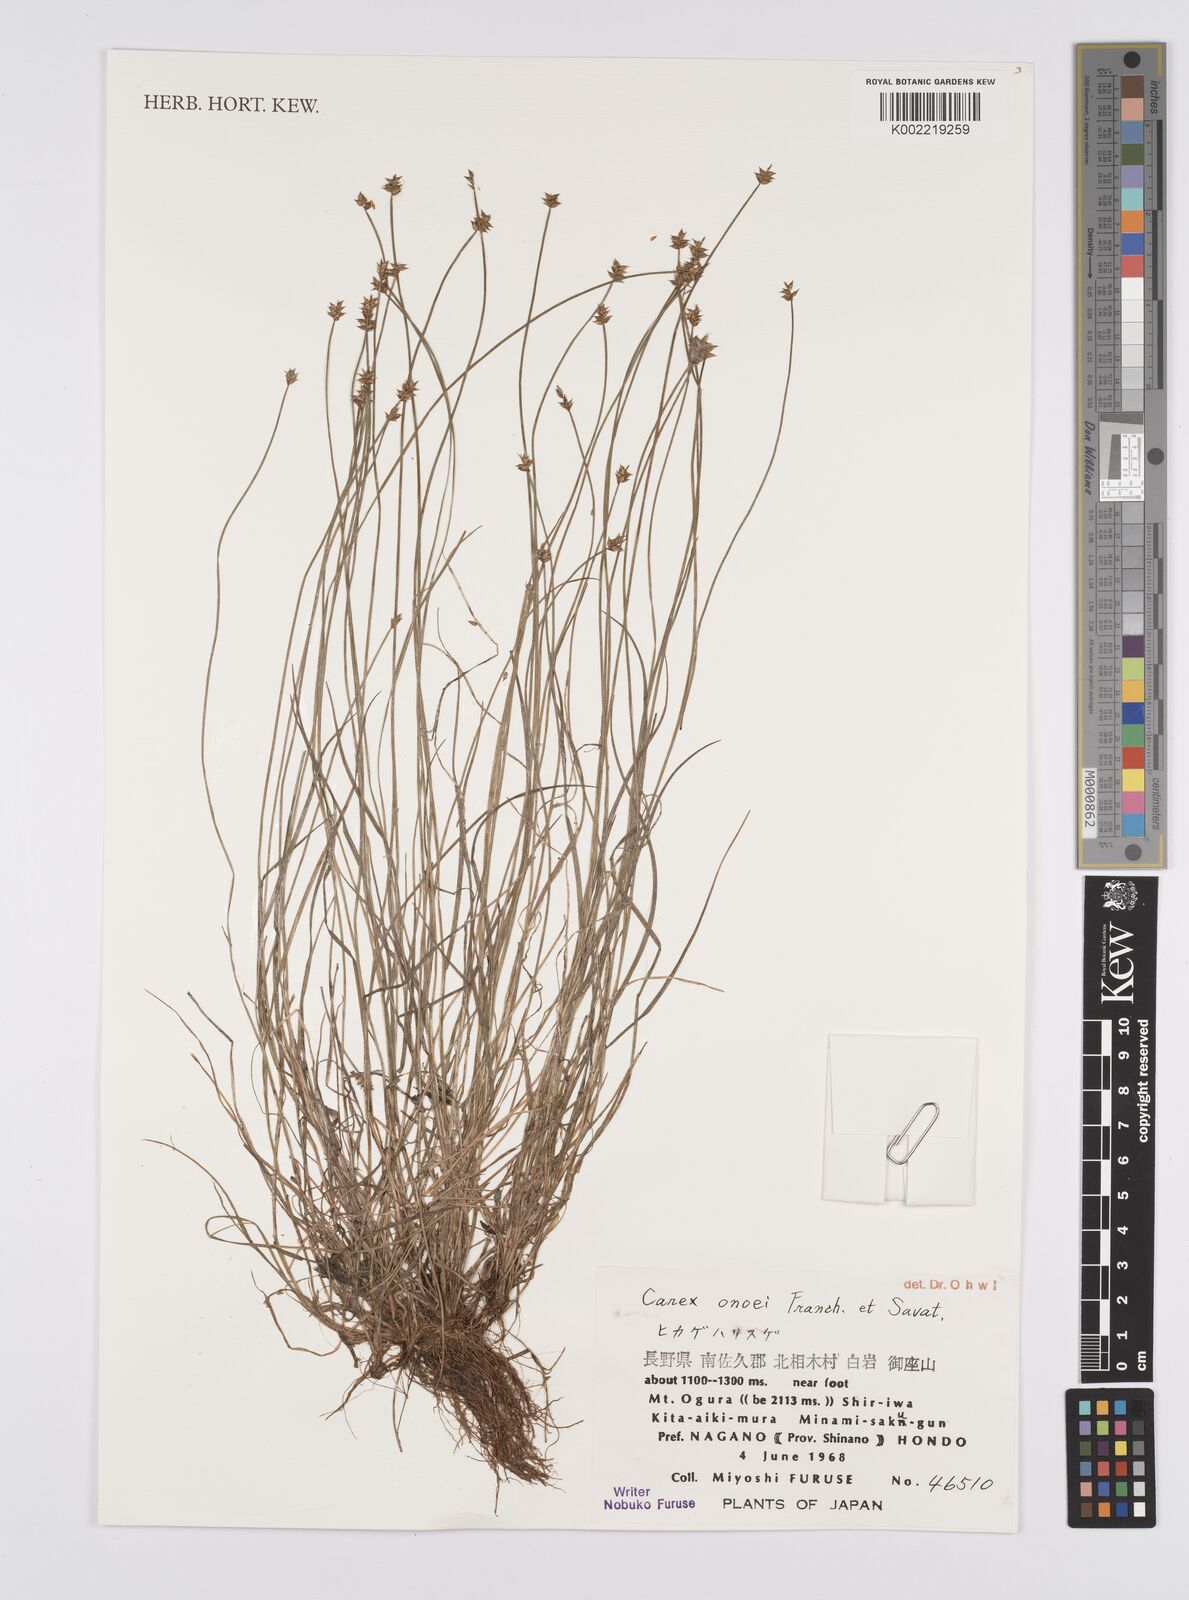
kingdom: Plantae
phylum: Tracheophyta
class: Liliopsida
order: Poales
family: Cyperaceae
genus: Carex
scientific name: Carex onoei
